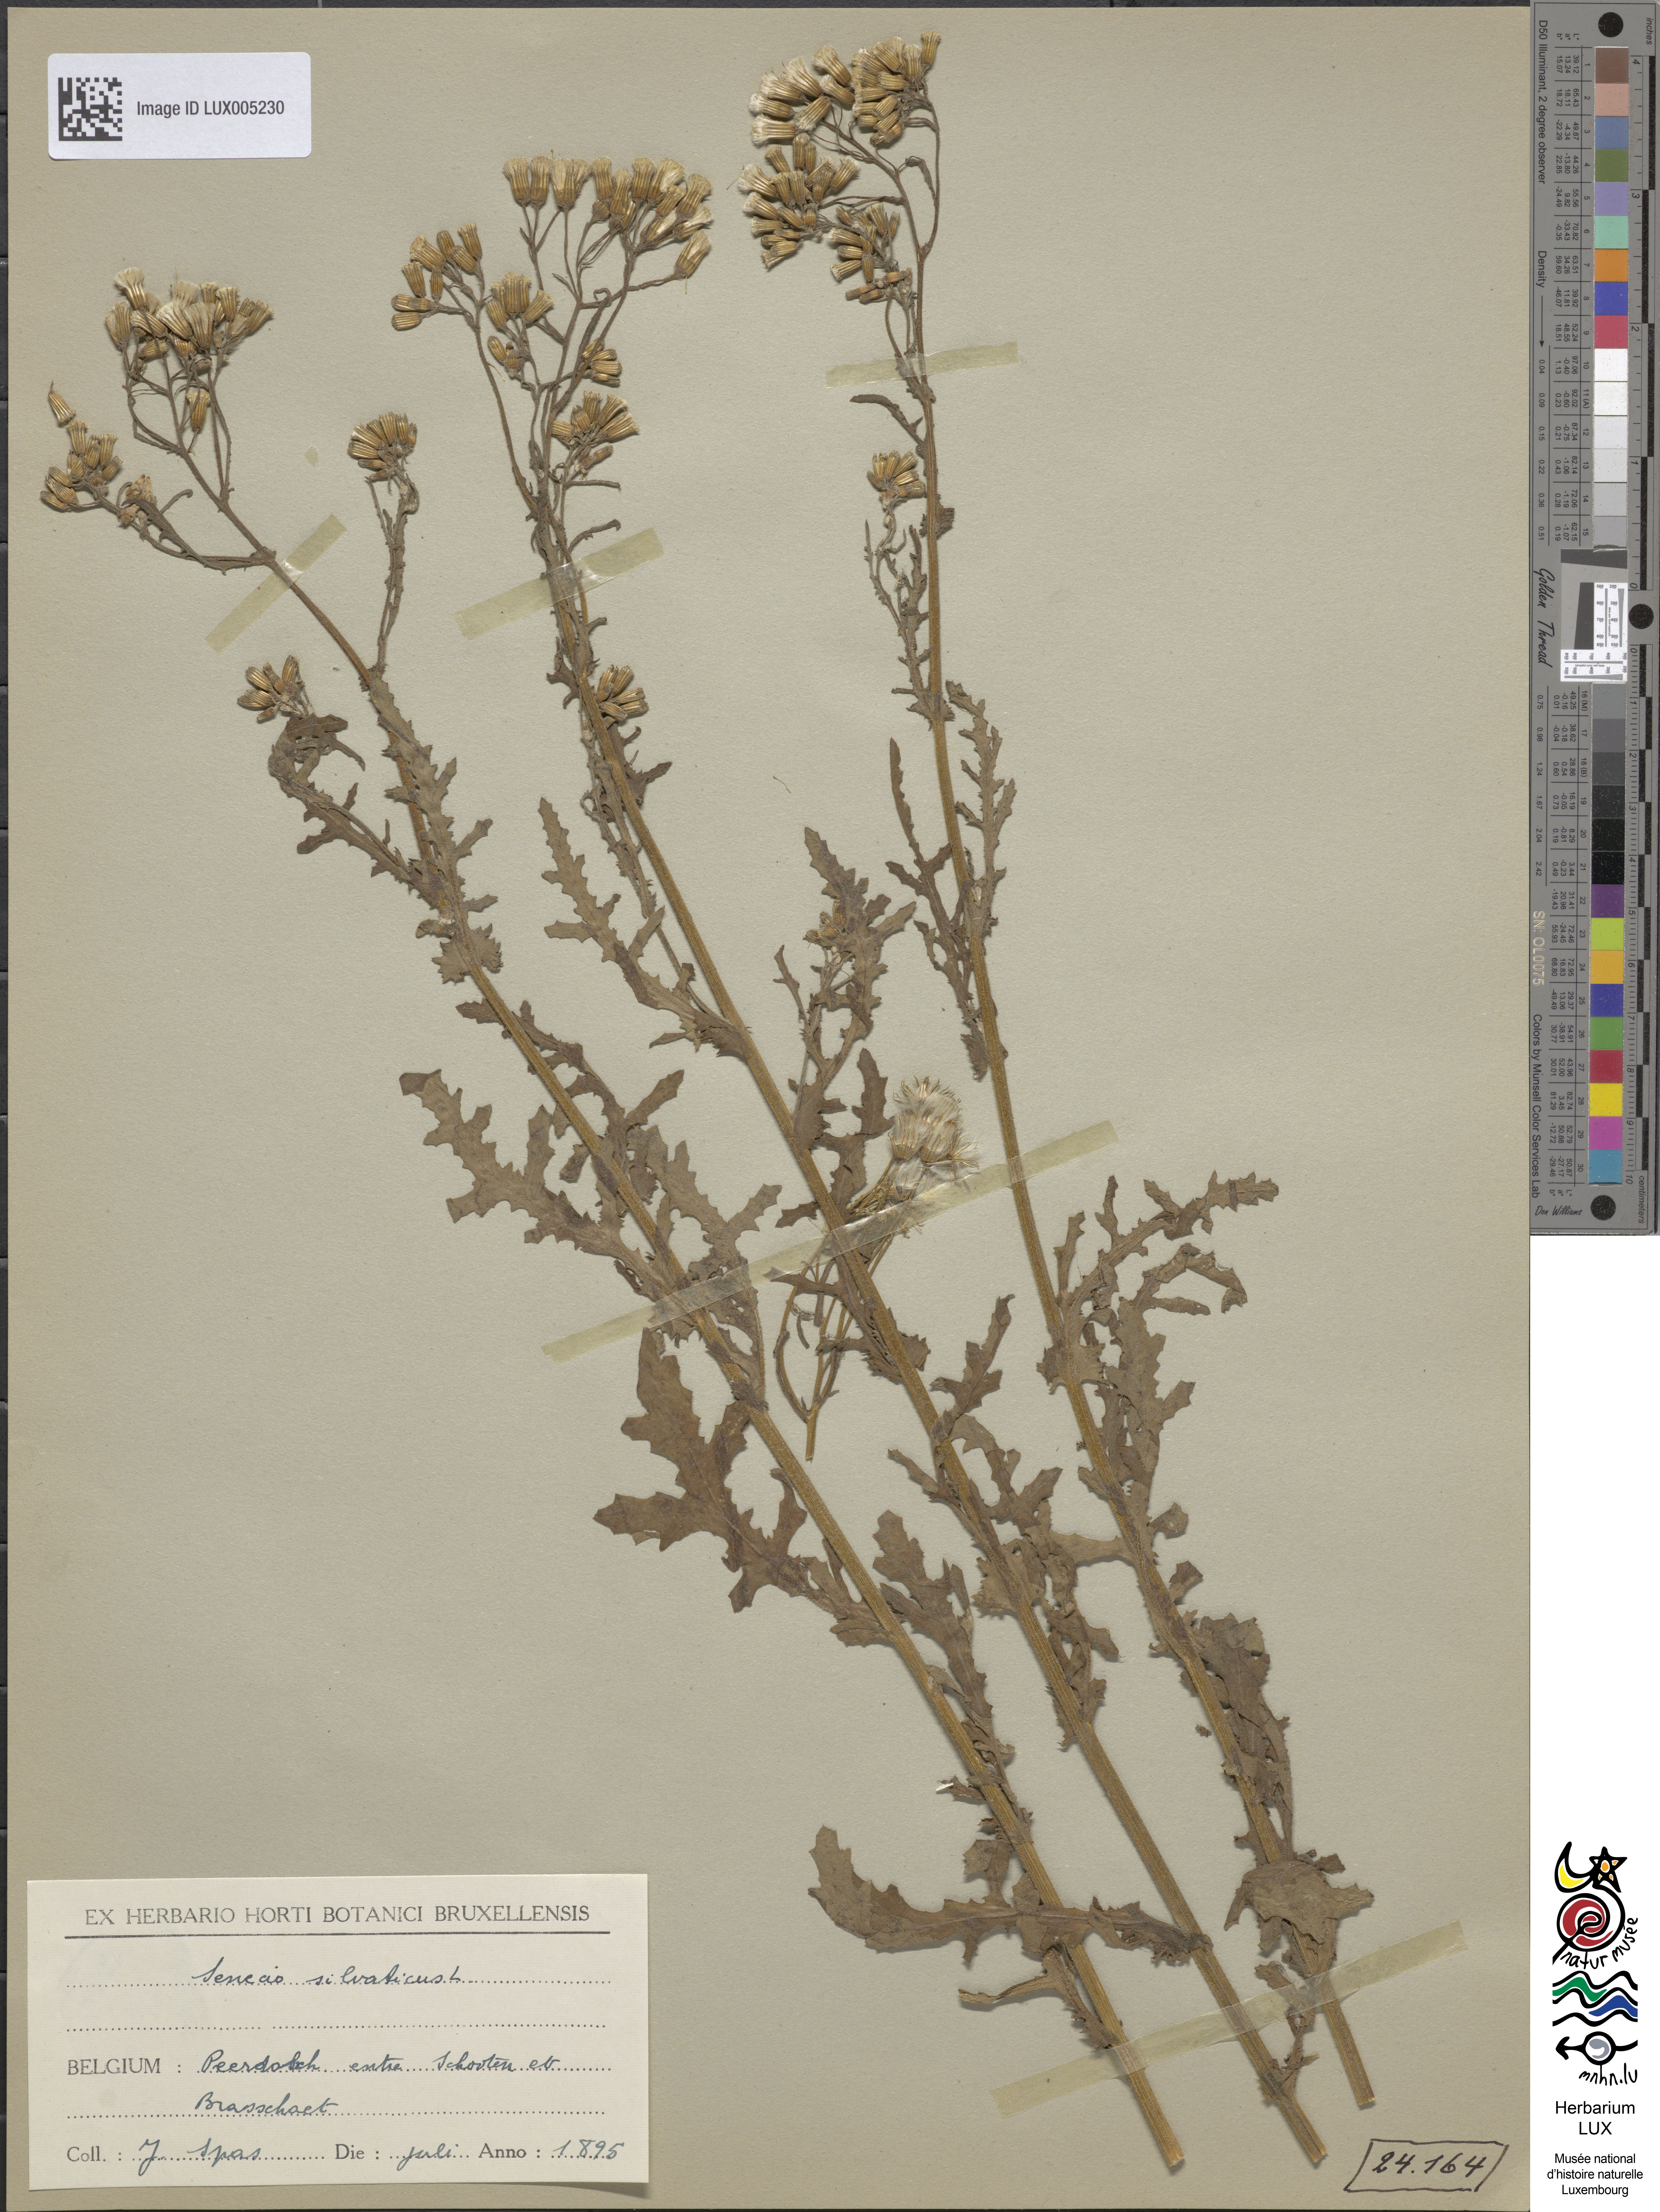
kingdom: Plantae
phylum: Tracheophyta
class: Magnoliopsida
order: Asterales
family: Asteraceae
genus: Senecio
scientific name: Senecio sylvaticus
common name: Woodland ragwort
